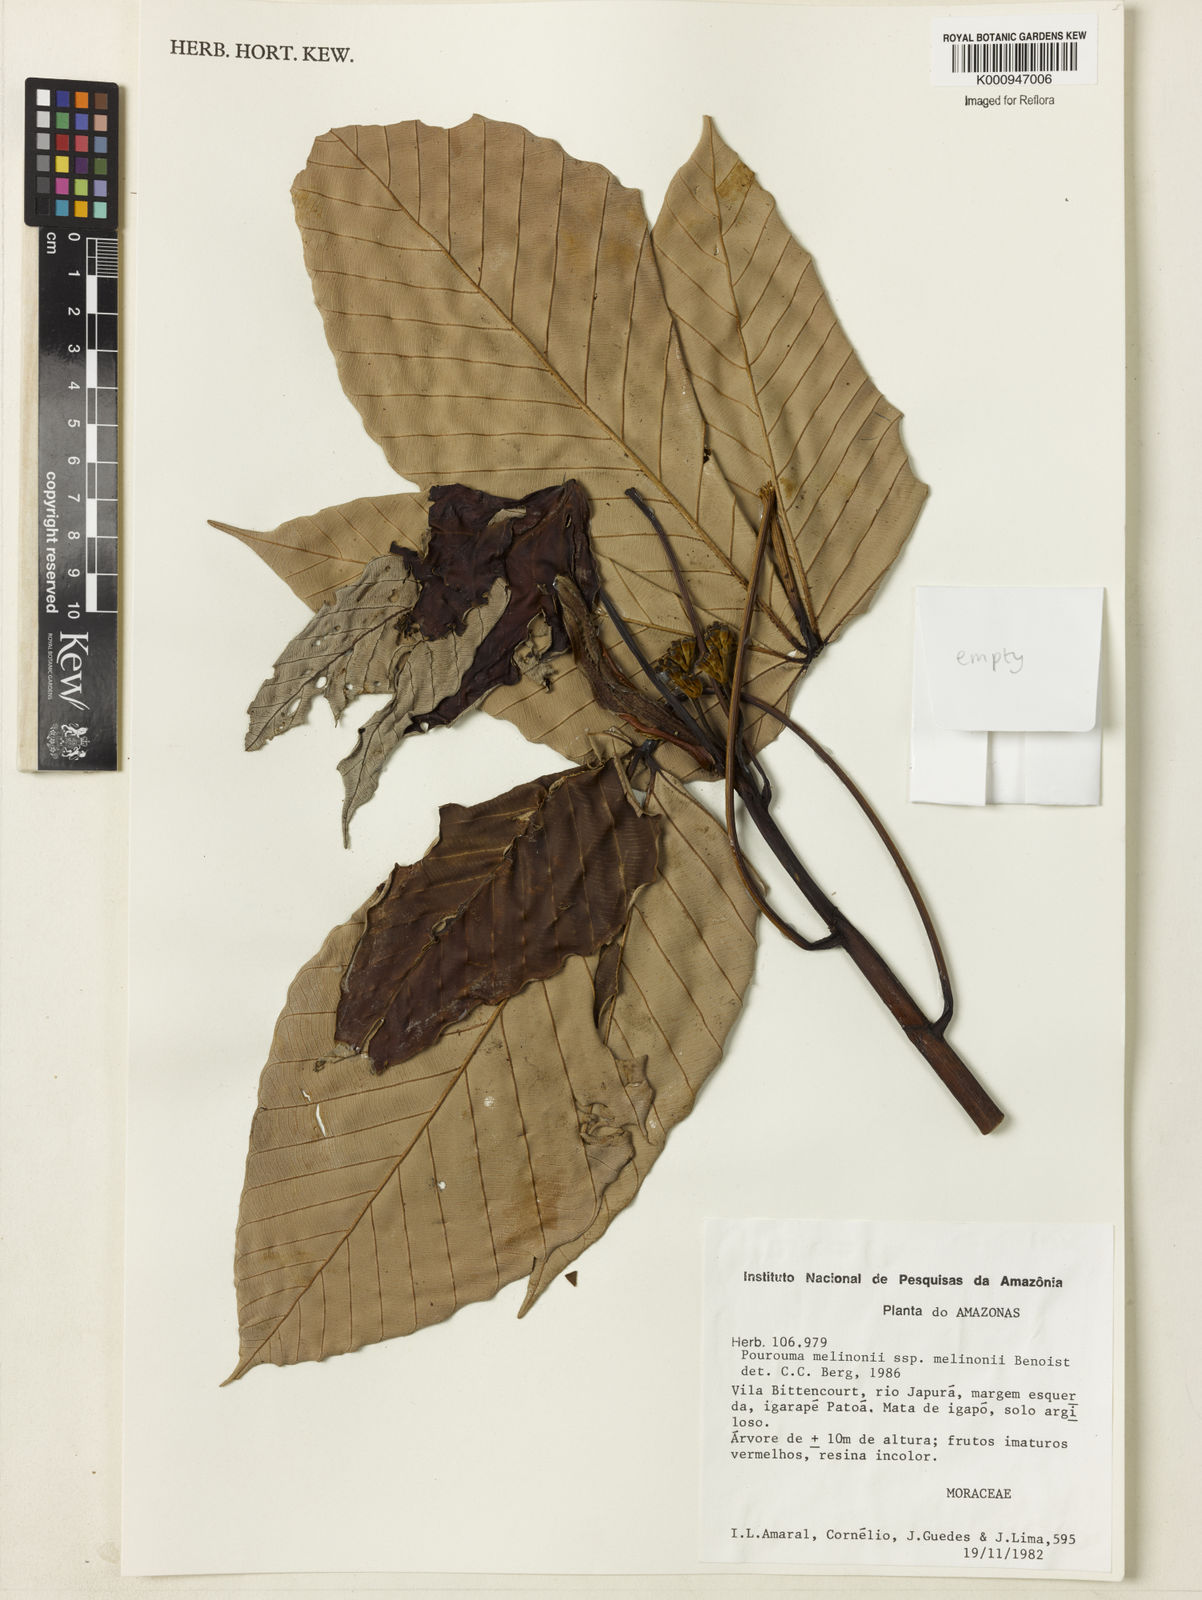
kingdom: Plantae
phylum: Tracheophyta
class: Magnoliopsida
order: Rosales
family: Urticaceae
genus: Pourouma
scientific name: Pourouma melinonii
